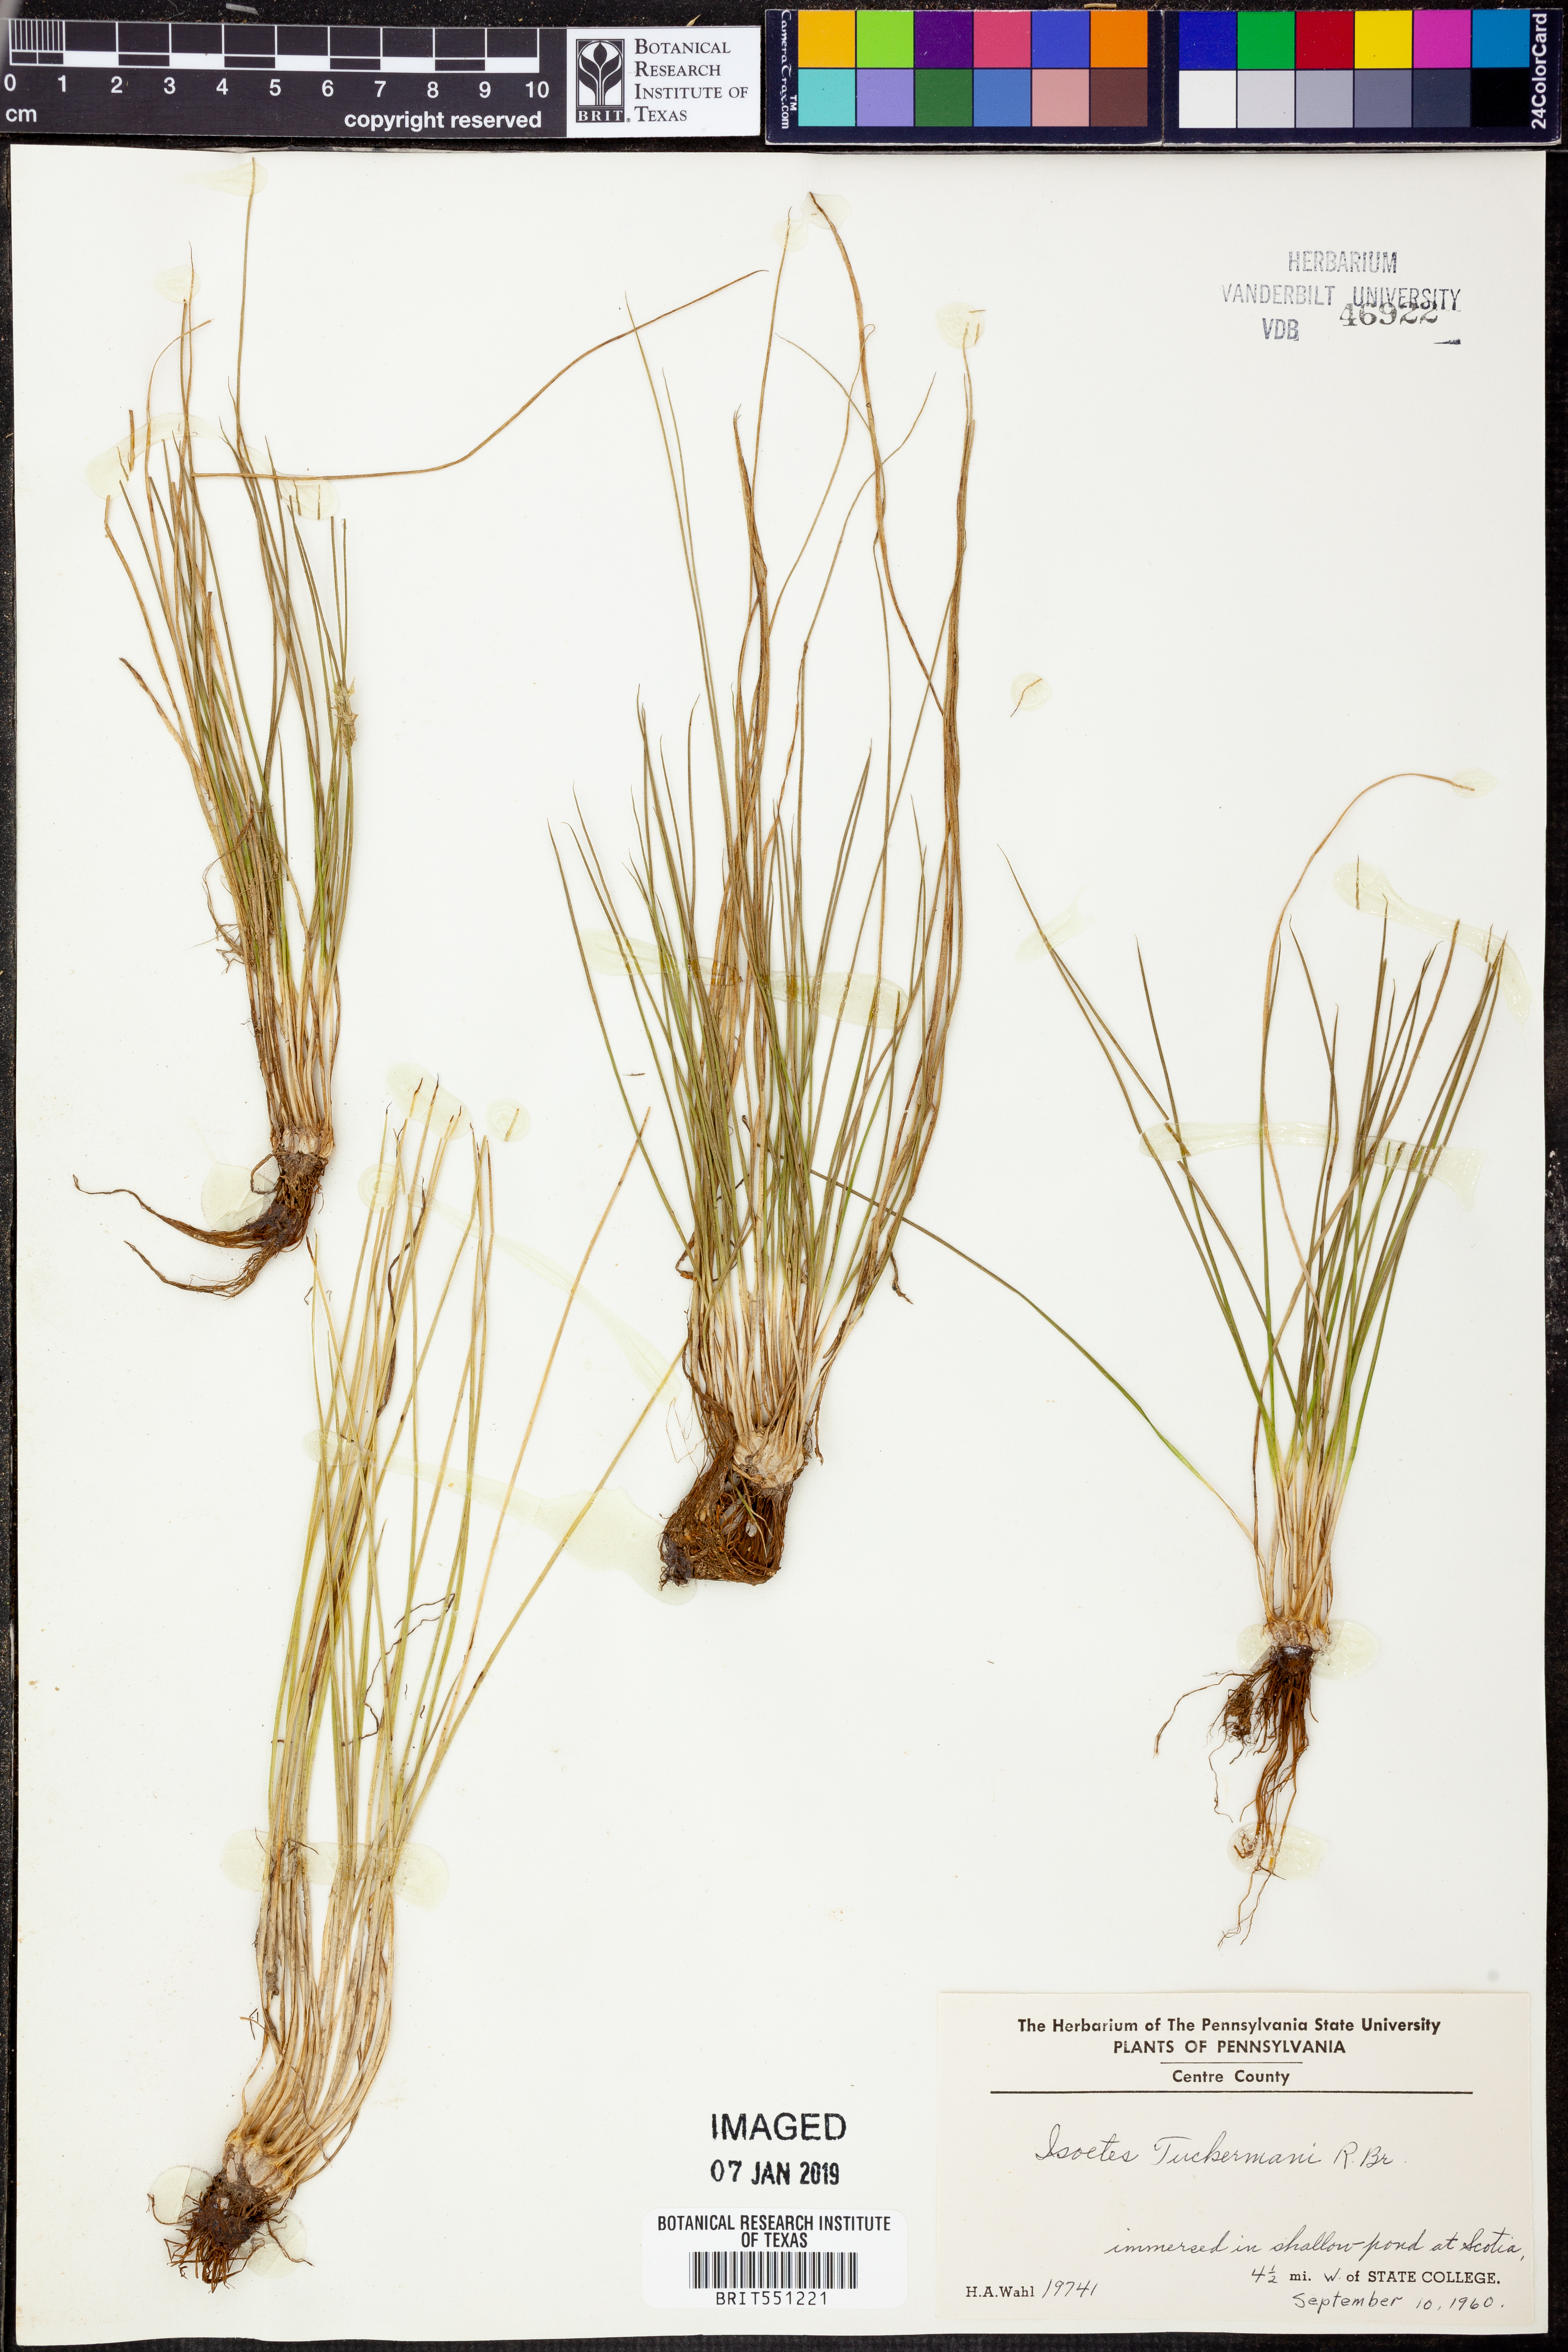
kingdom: Plantae
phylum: Tracheophyta
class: Lycopodiopsida
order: Isoetales
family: Isoetaceae
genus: Isoetes
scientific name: Isoetes tuckermanii
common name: Tuckerman's quillwort
